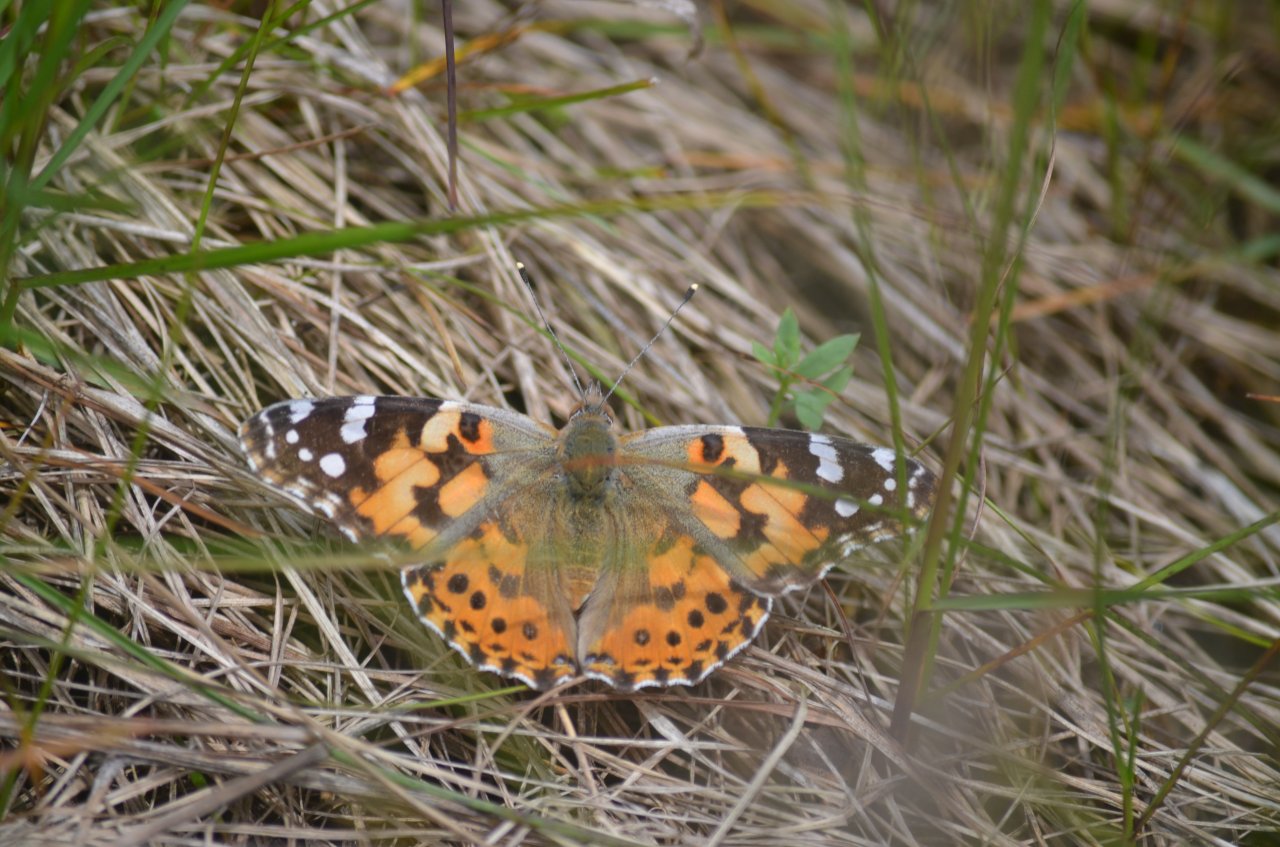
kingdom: Animalia
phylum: Arthropoda
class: Insecta
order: Lepidoptera
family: Nymphalidae
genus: Vanessa
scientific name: Vanessa cardui
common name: Painted Lady
